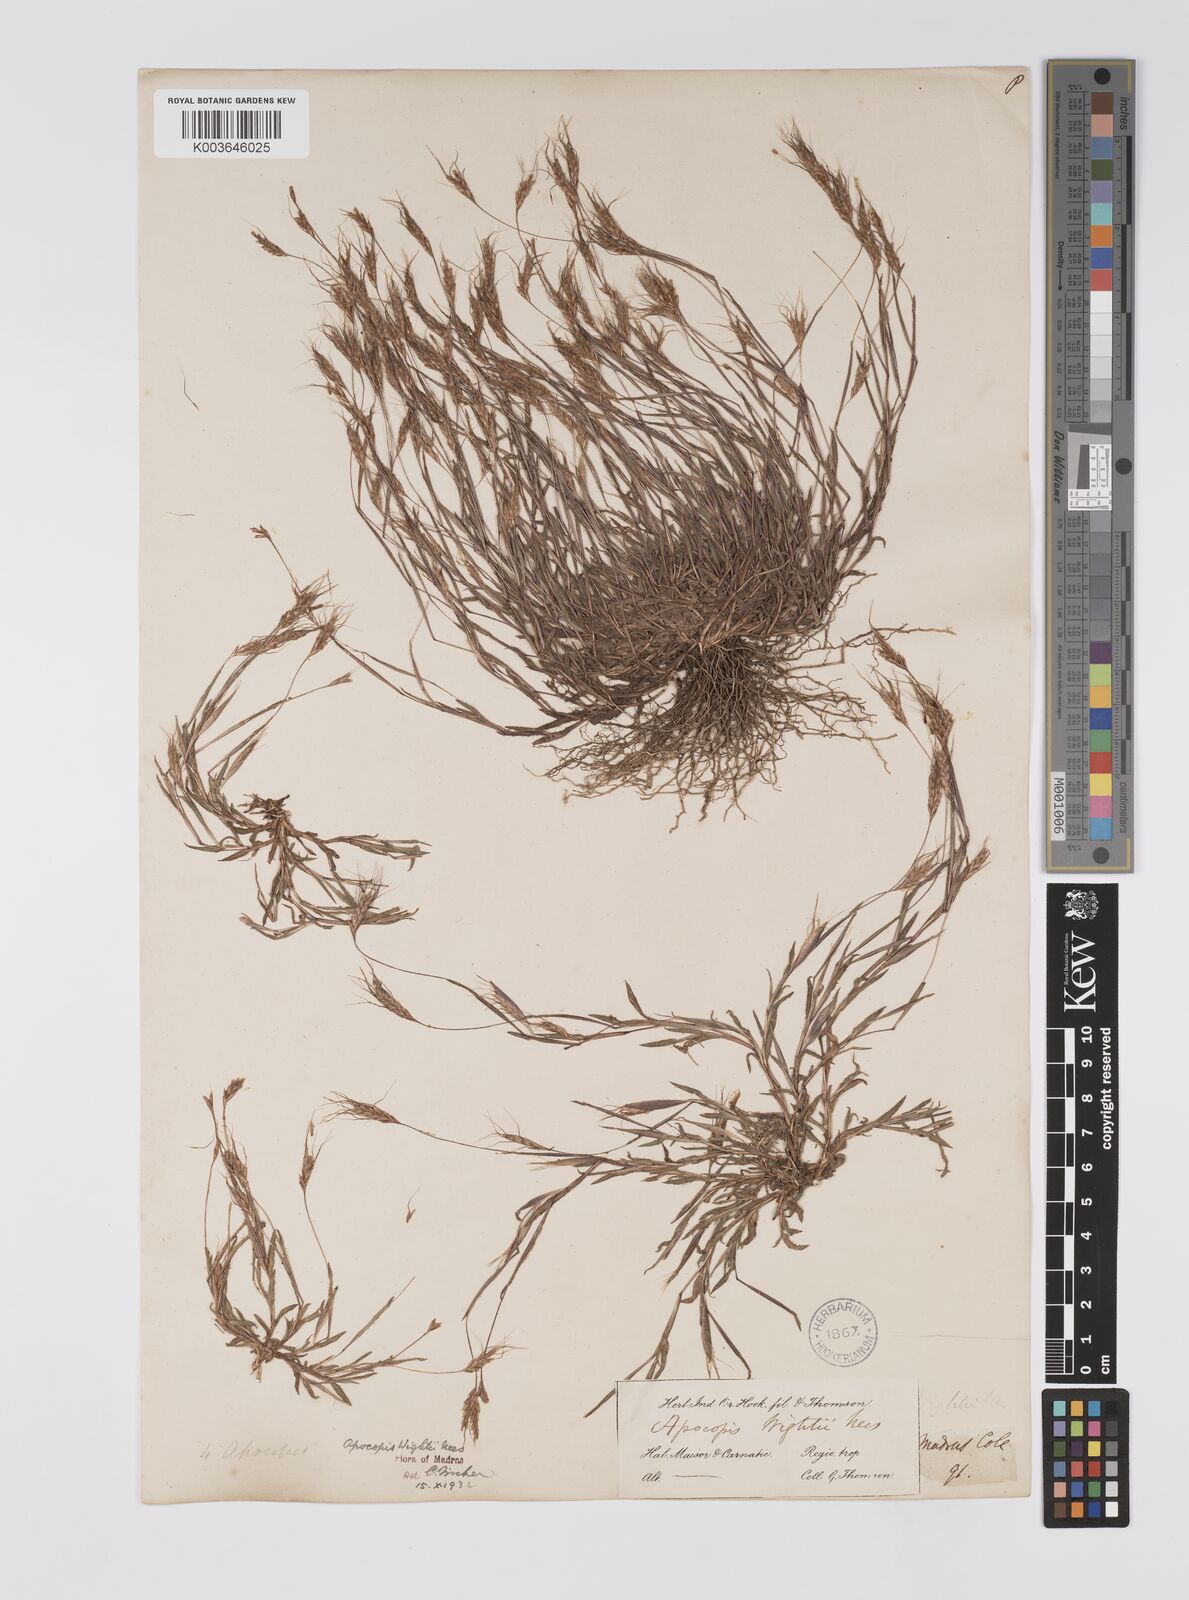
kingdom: Plantae
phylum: Tracheophyta
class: Liliopsida
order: Poales
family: Poaceae
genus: Apocopis
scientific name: Apocopis mangalorensis
